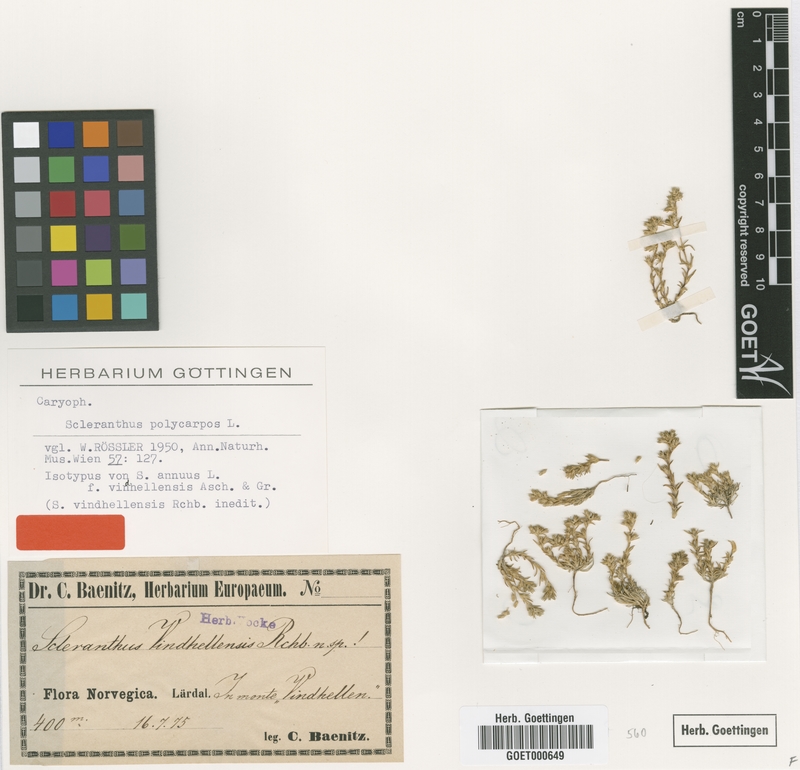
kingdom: Plantae
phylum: Tracheophyta
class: Magnoliopsida
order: Caryophyllales
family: Caryophyllaceae
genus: Scleranthus
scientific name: Scleranthus annuus
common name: Annual knawel
